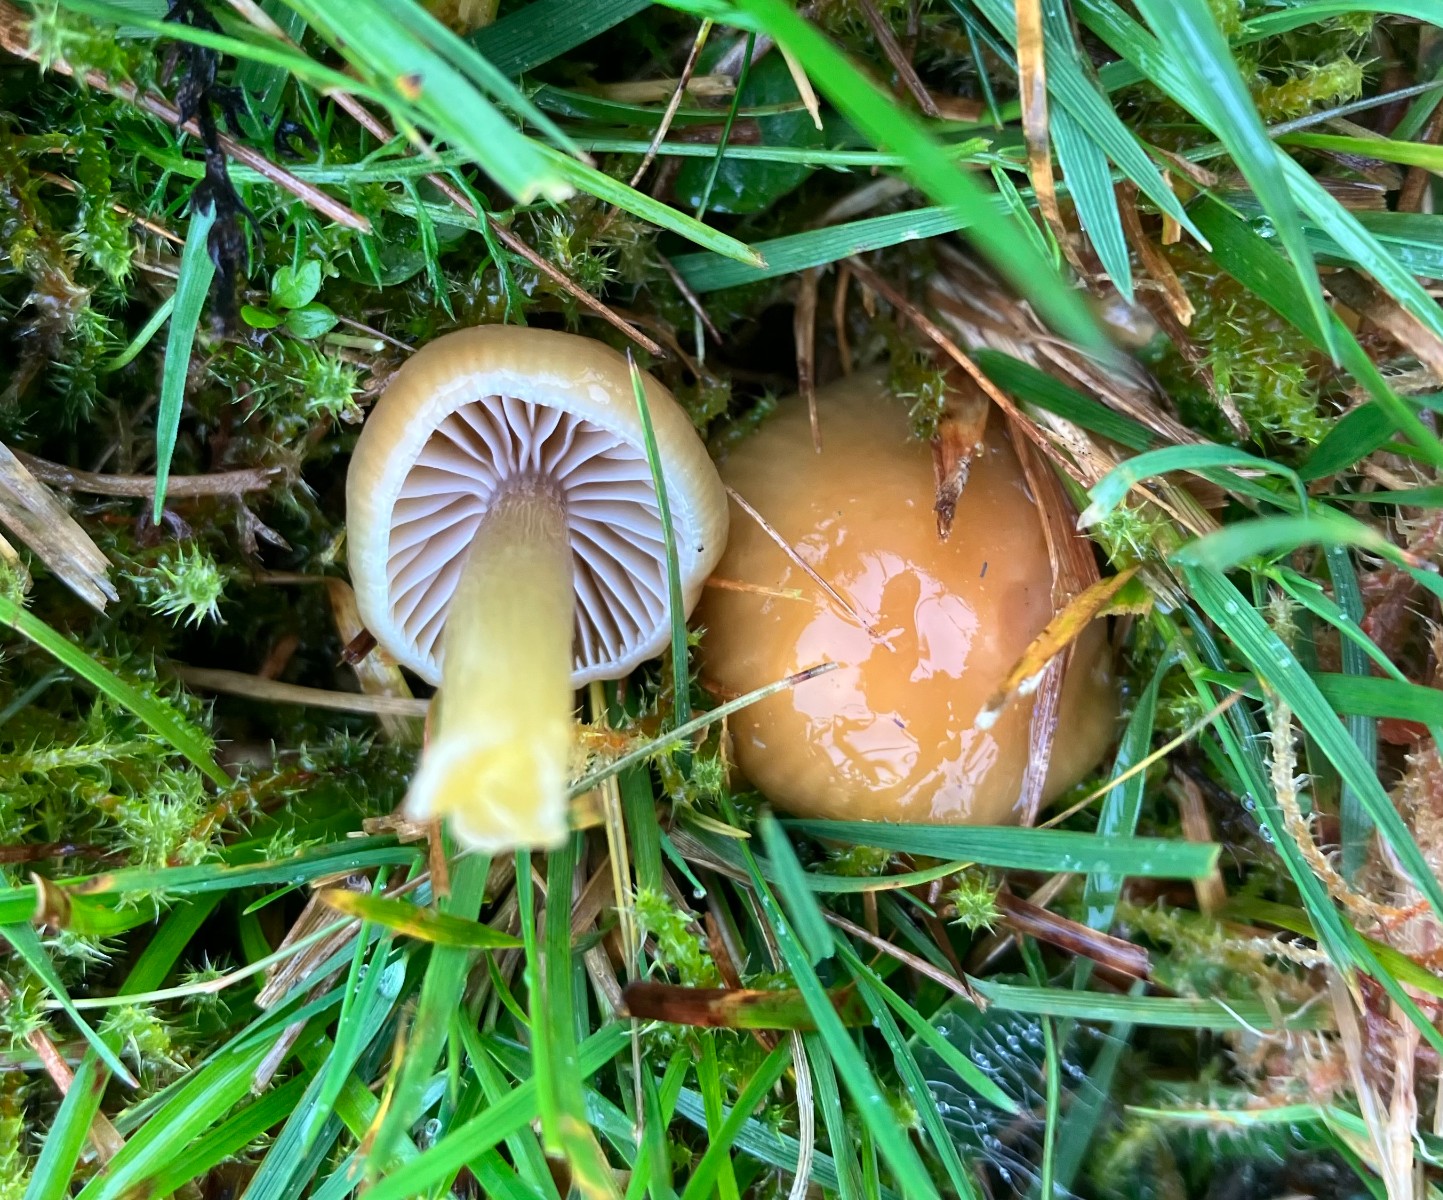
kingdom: Fungi
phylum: Basidiomycota
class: Agaricomycetes
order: Agaricales
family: Hygrophoraceae
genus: Gliophorus
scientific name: Gliophorus laetus
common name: brusk-vokshat
